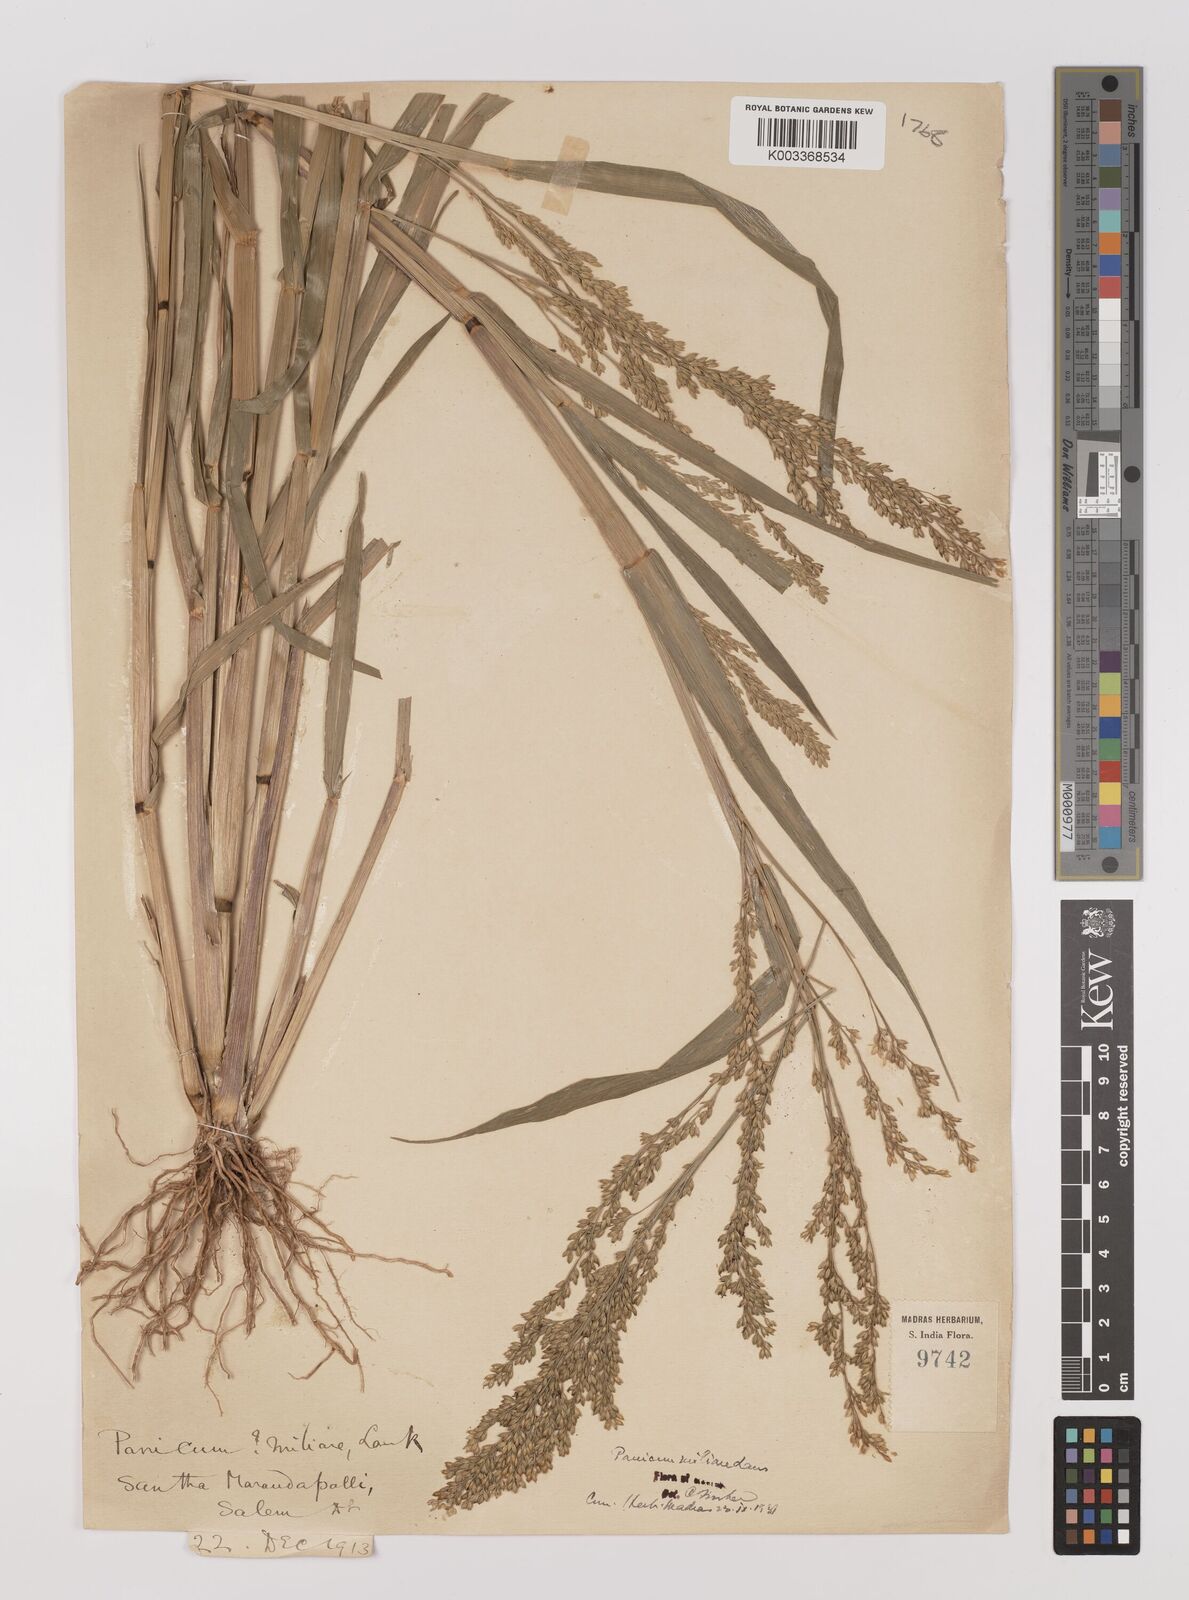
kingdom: Plantae
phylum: Tracheophyta
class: Liliopsida
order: Poales
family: Poaceae
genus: Panicum
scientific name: Panicum sumatrense
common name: Little millet
